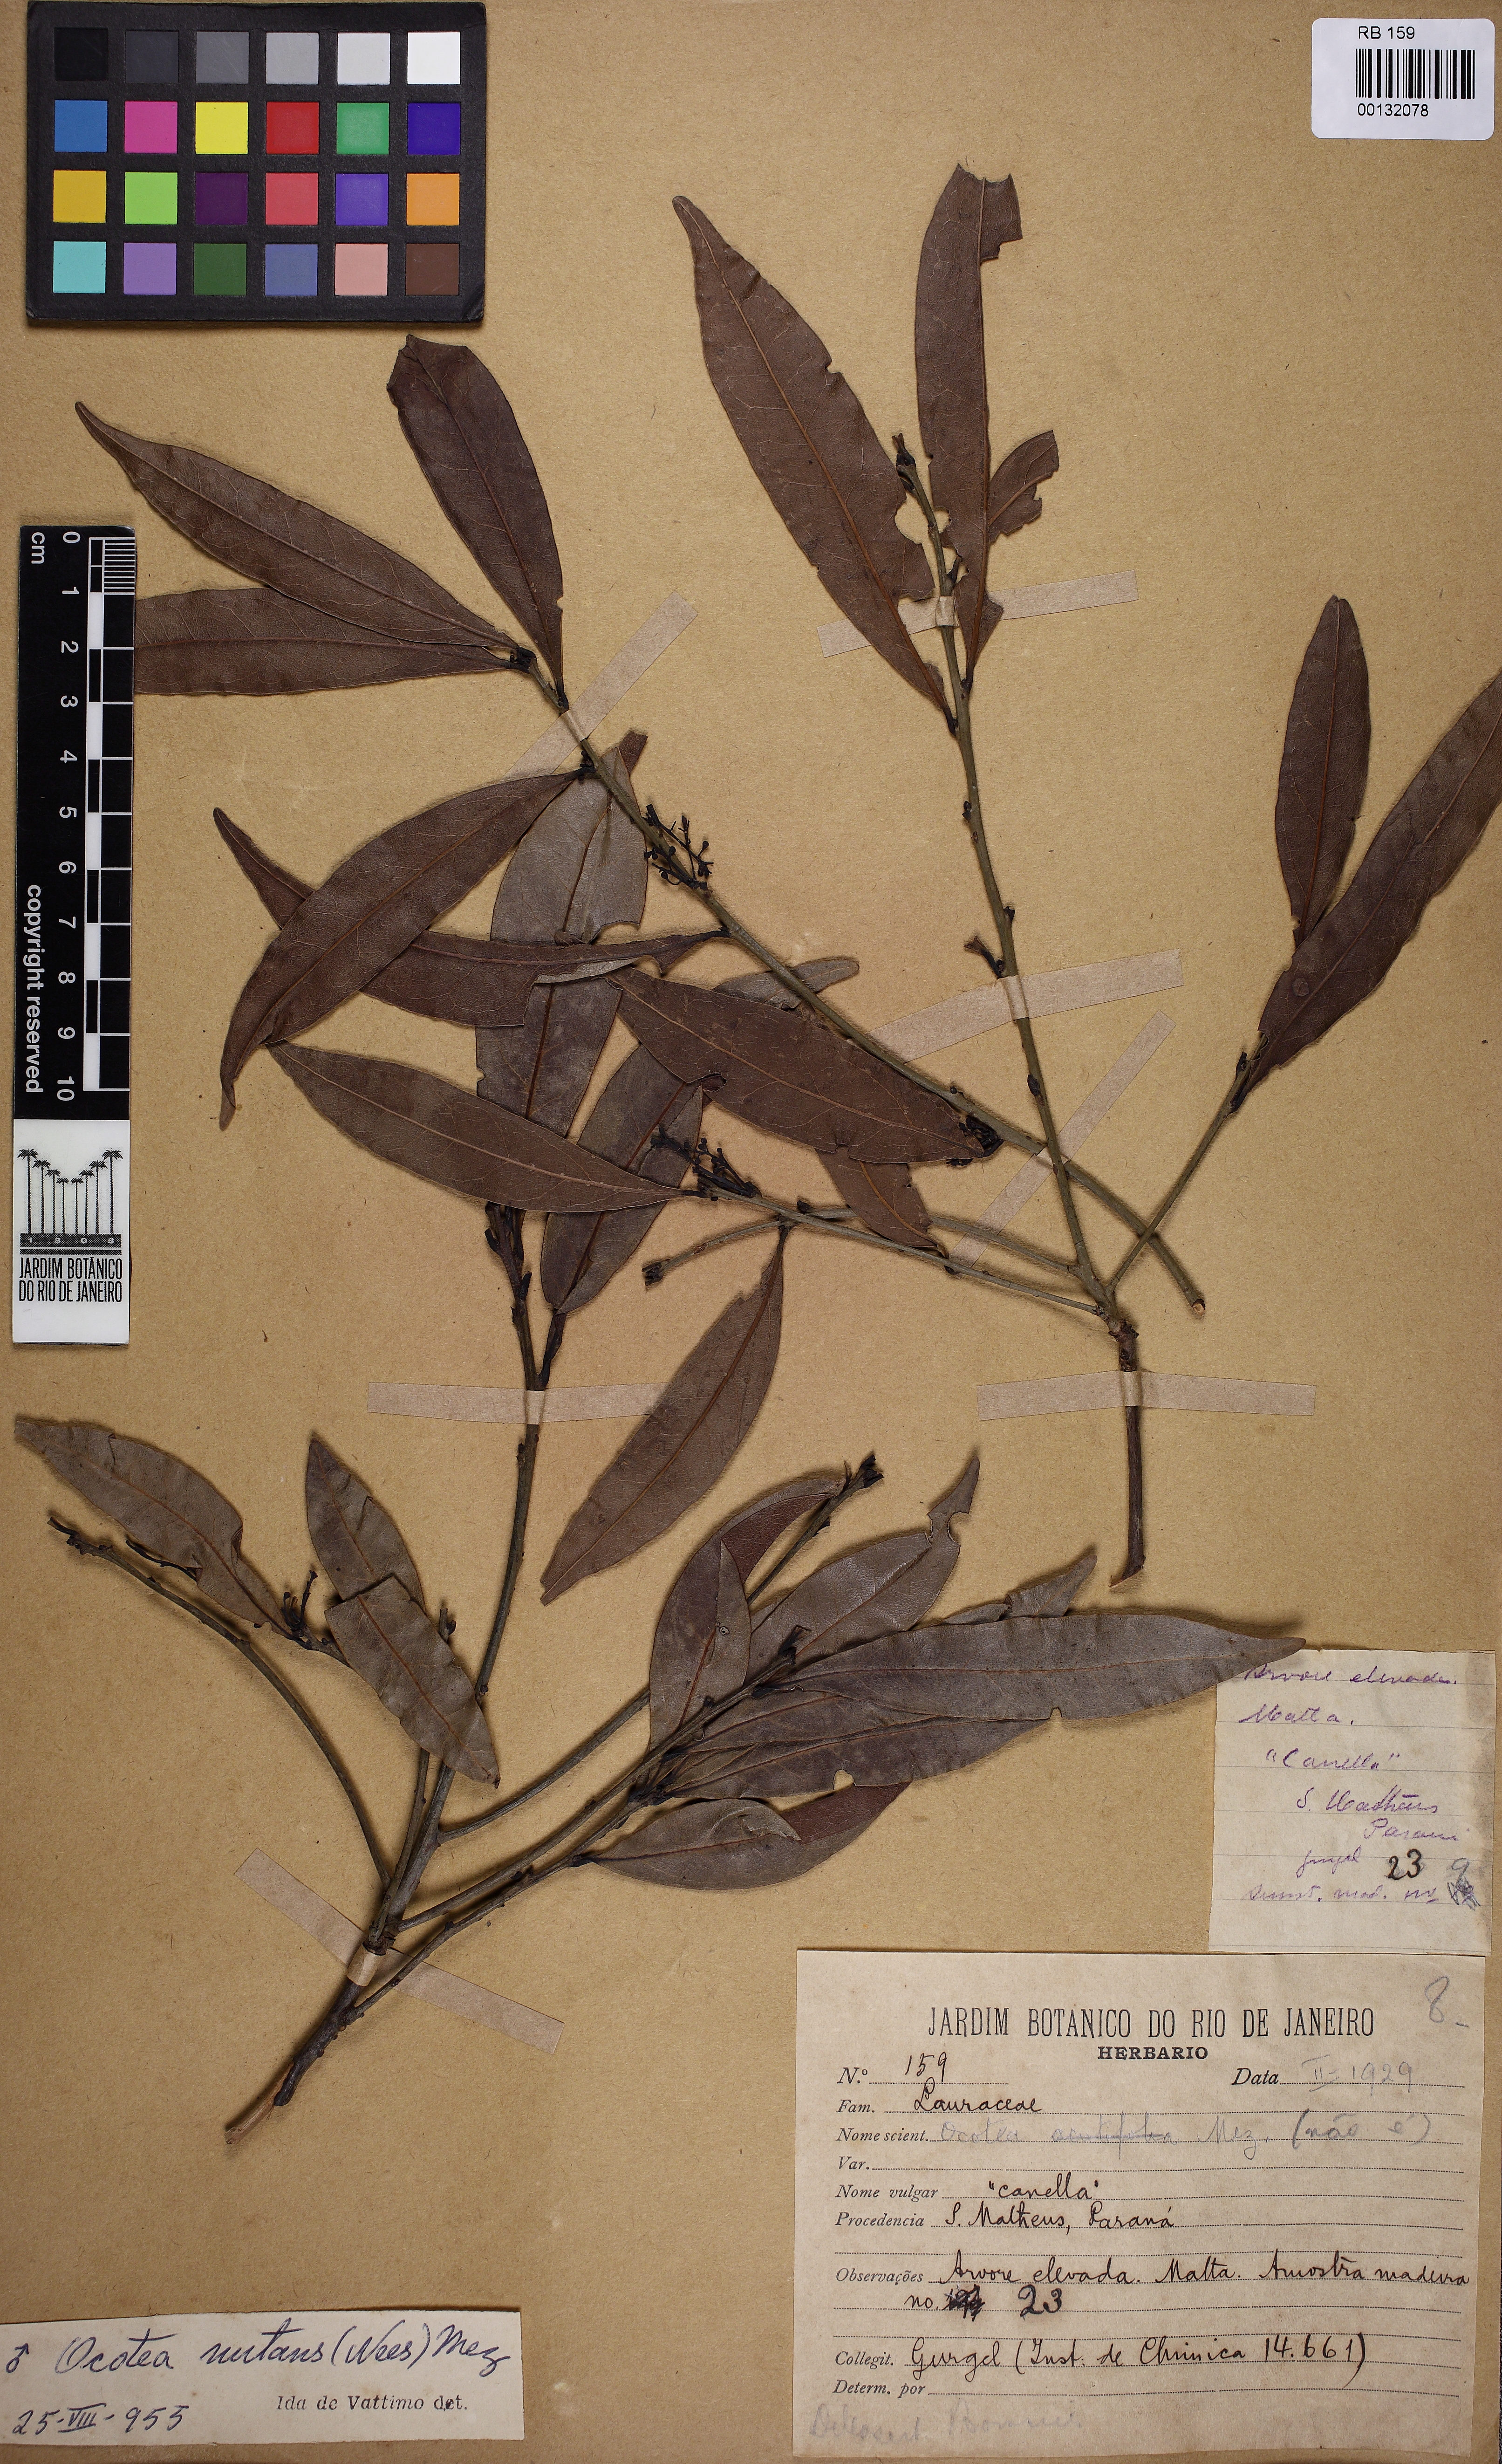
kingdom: Plantae
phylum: Tracheophyta
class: Magnoliopsida
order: Laurales
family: Lauraceae
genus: Mespilodaphne
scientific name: Mespilodaphne nutans
